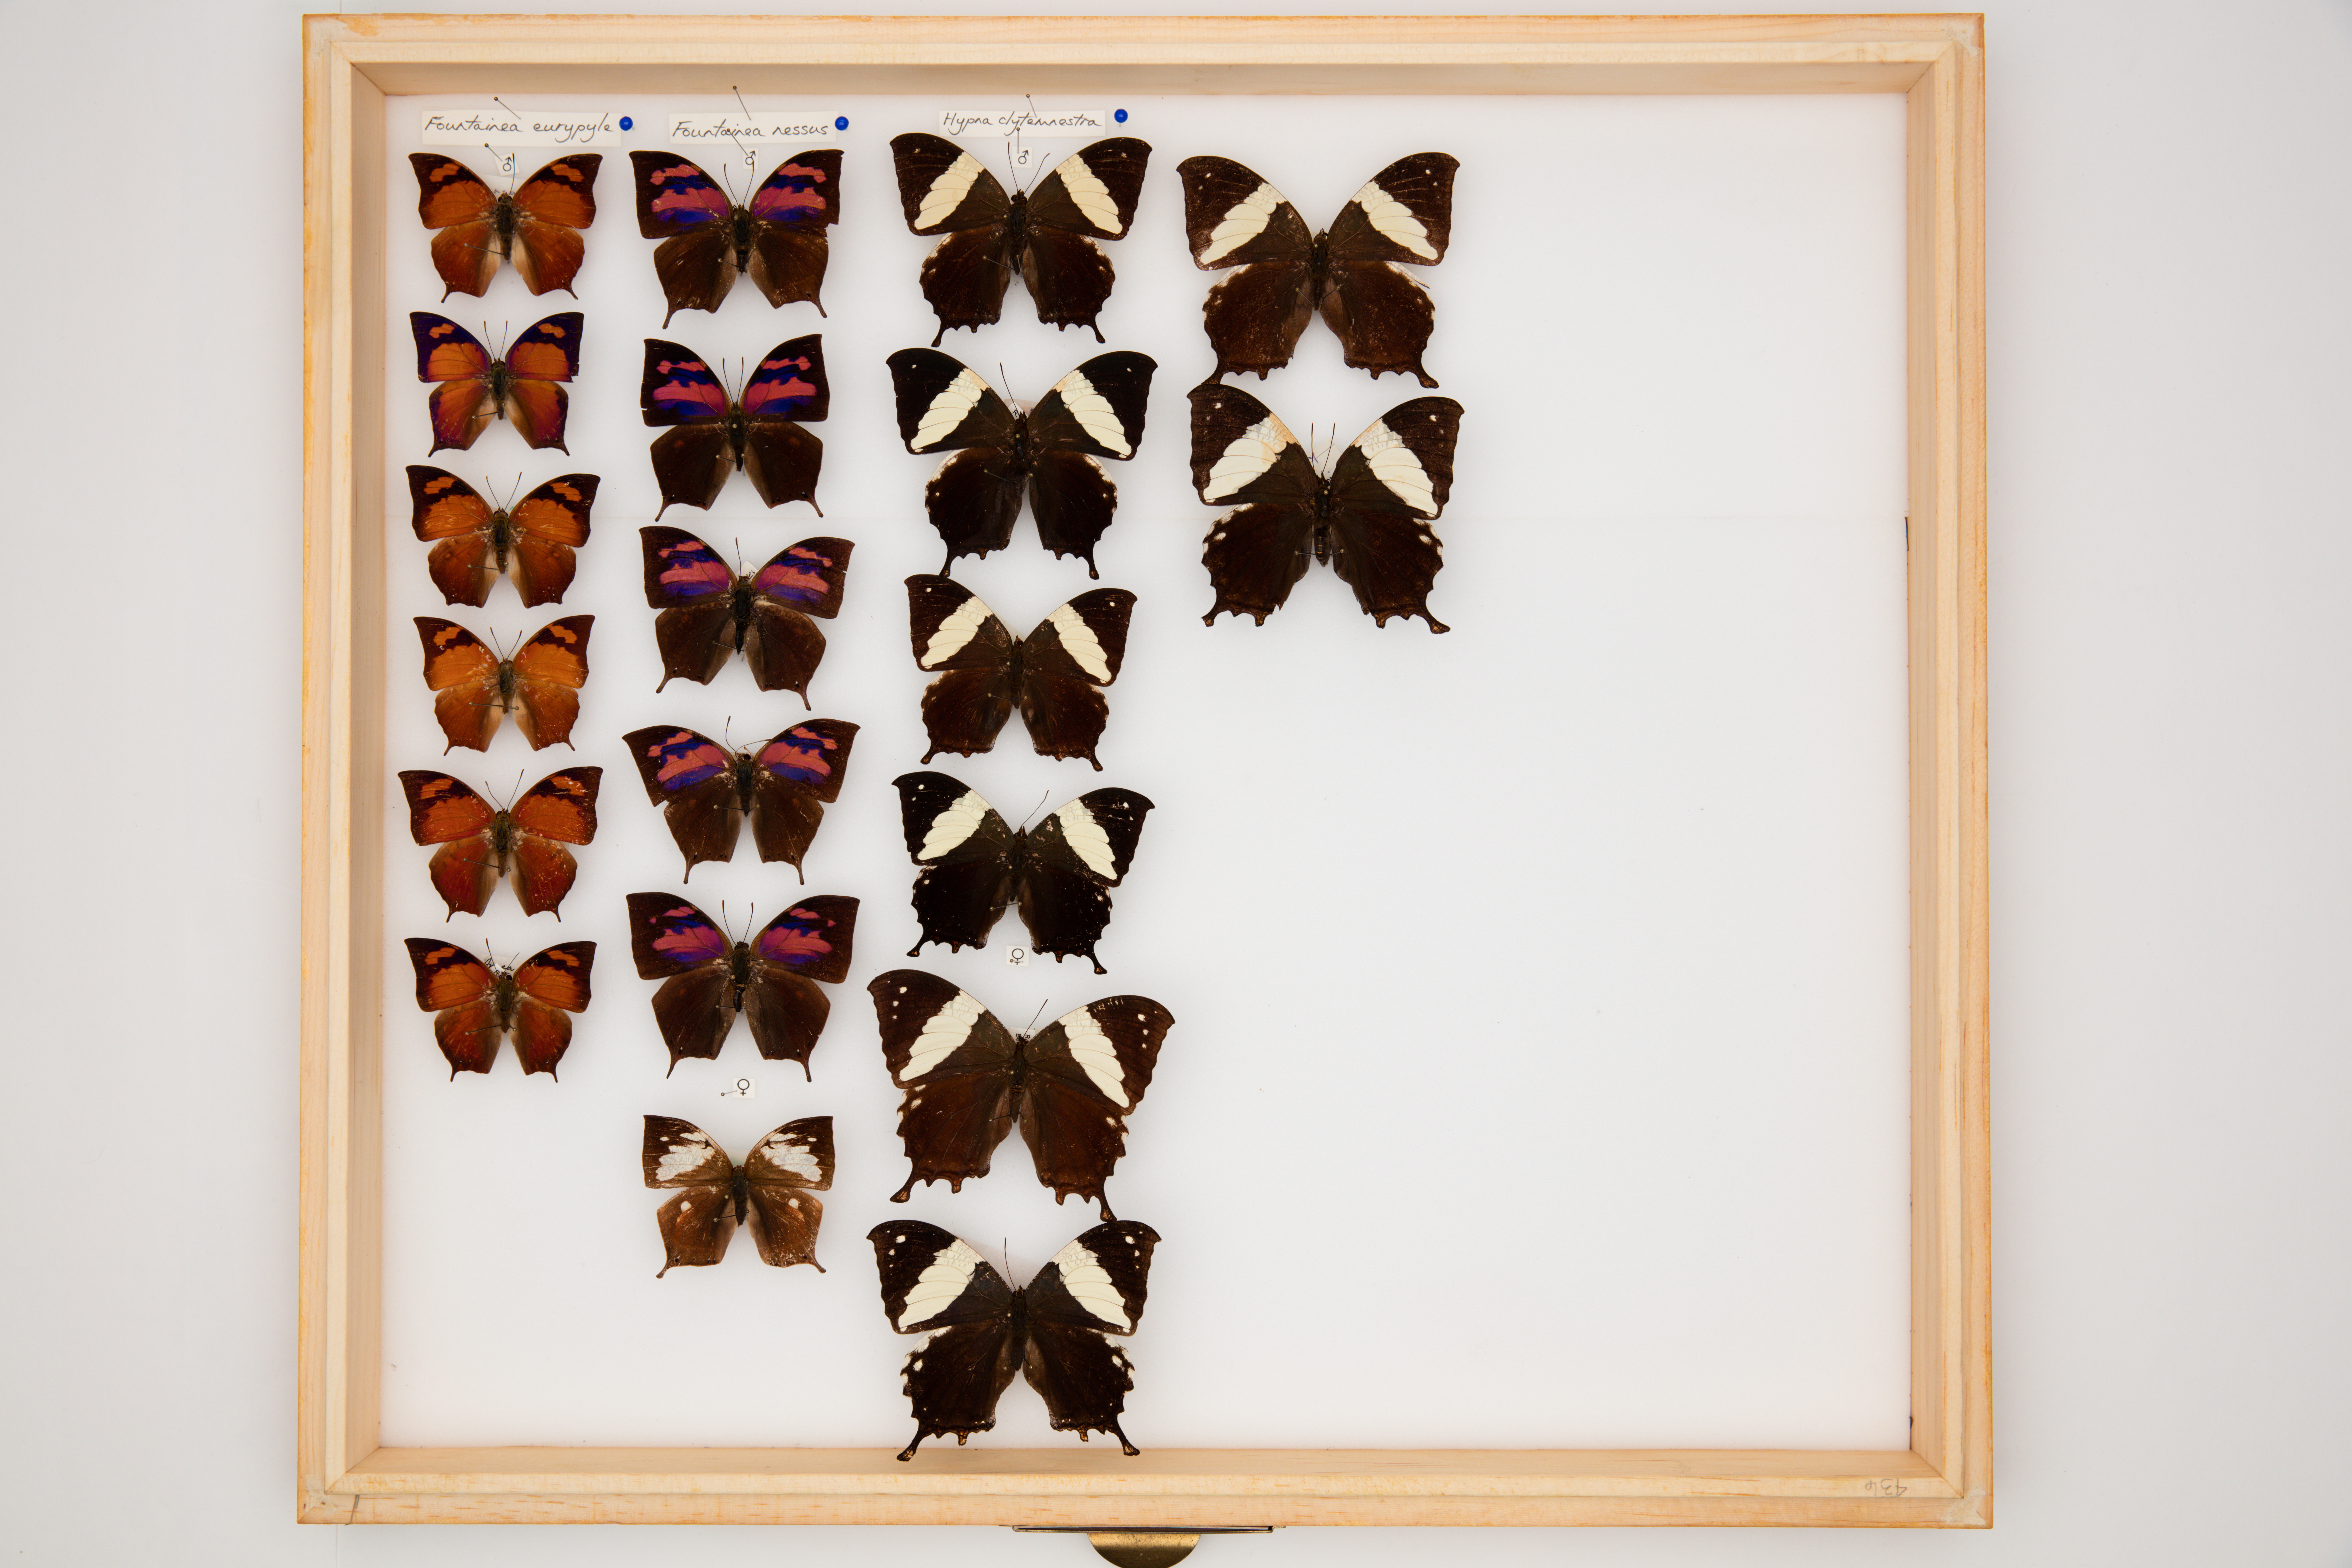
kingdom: Animalia
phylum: Arthropoda
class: Insecta
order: Lepidoptera
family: Nymphalidae
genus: Fountainea
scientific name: Fountainea
